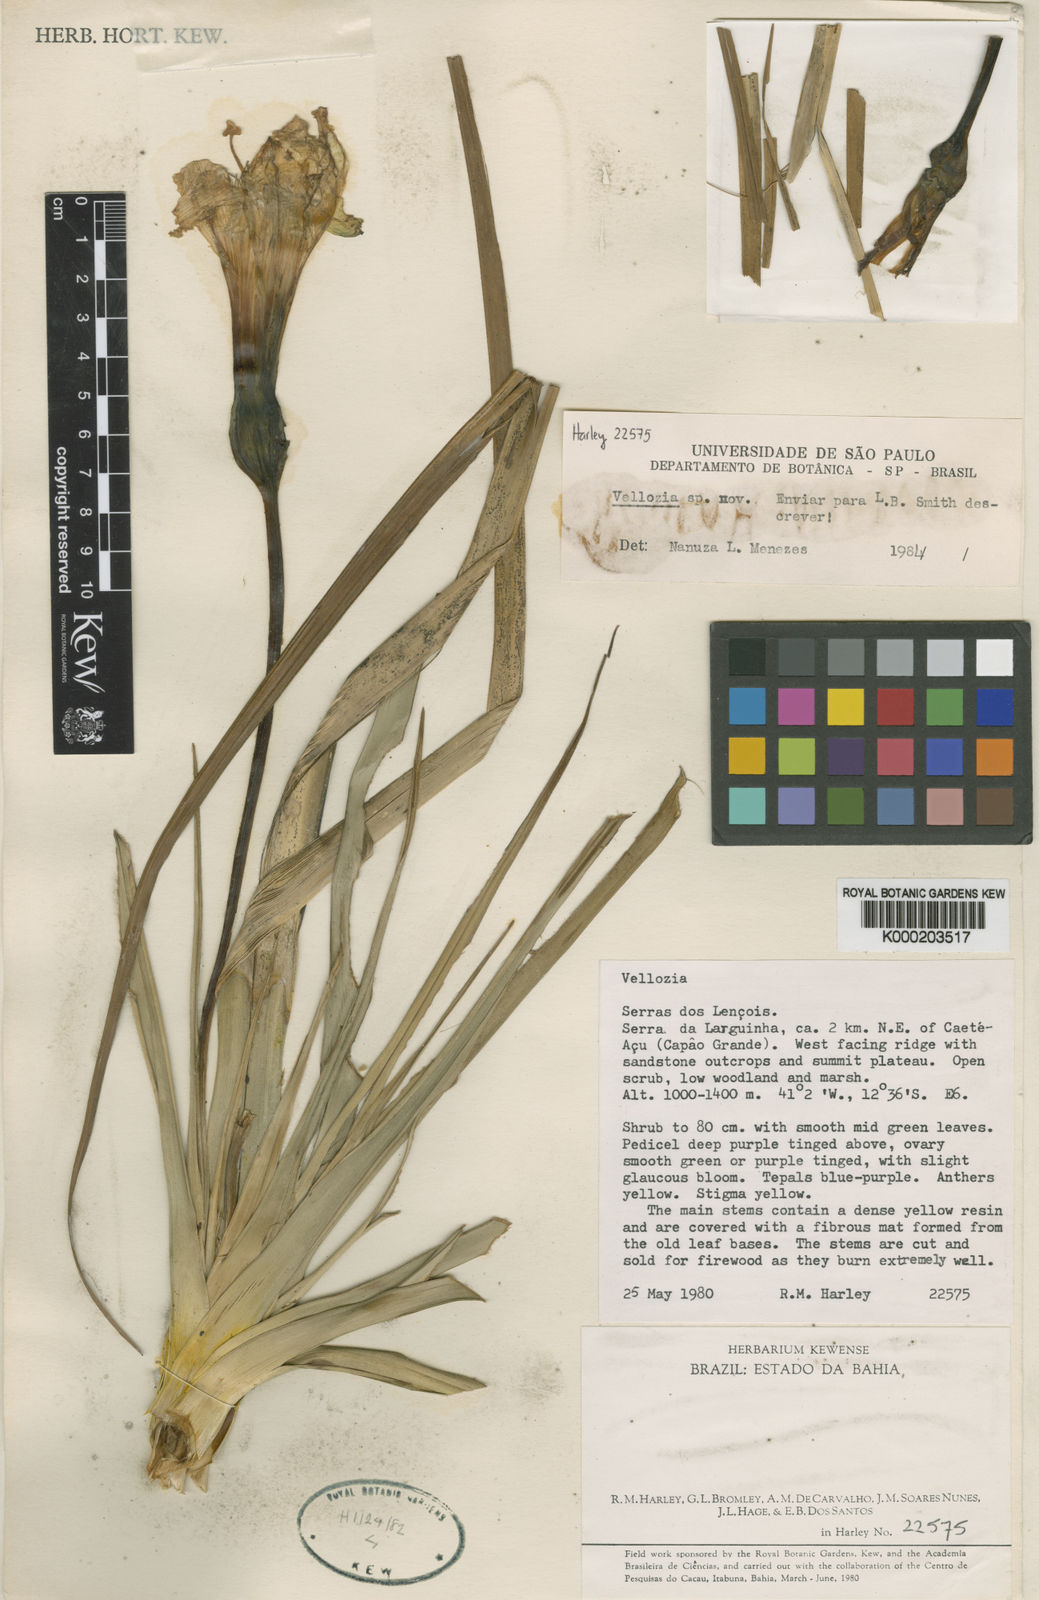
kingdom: Plantae
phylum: Tracheophyta
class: Liliopsida
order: Pandanales
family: Velloziaceae
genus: Vellozia
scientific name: Vellozia sincorana
